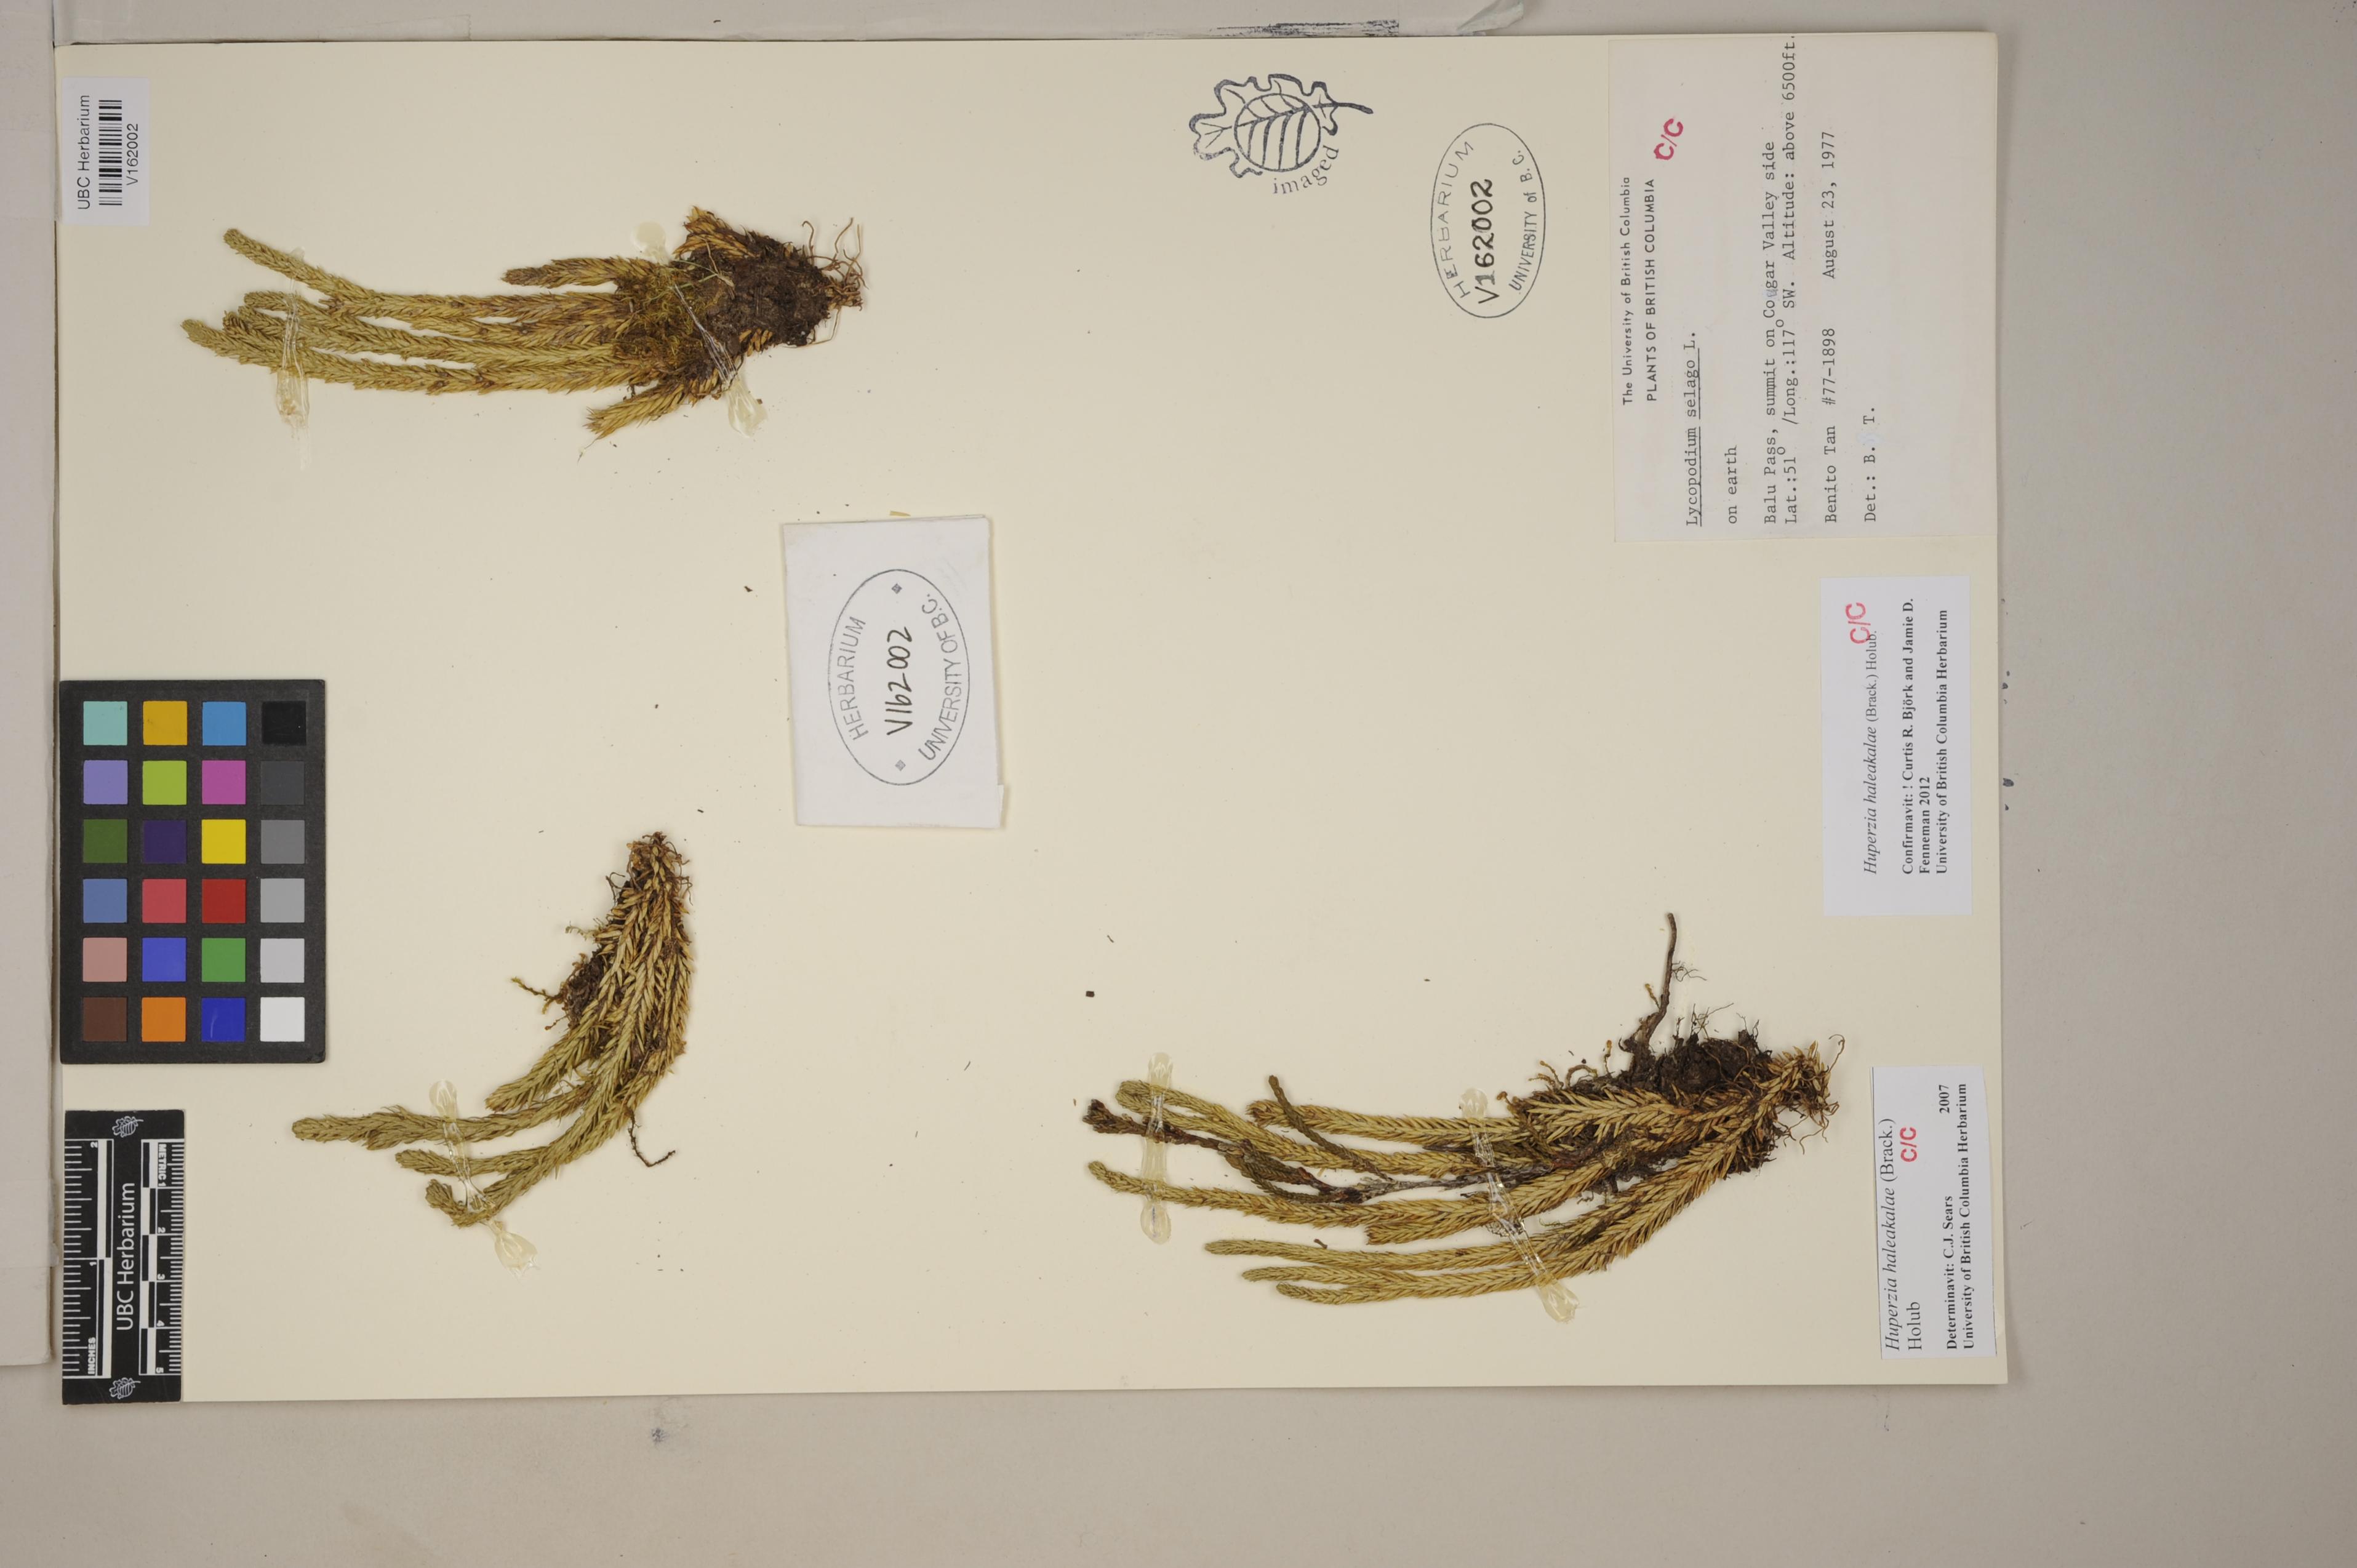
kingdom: Plantae
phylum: Tracheophyta
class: Lycopodiopsida
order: Lycopodiales
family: Lycopodiaceae
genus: Huperzia
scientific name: Huperzia continentalis
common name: Continental firmoss
